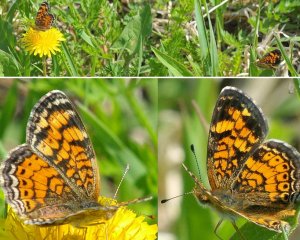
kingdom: Animalia
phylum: Arthropoda
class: Insecta
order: Lepidoptera
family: Nymphalidae
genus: Phyciodes
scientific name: Phyciodes tharos
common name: Pearl Crescent
